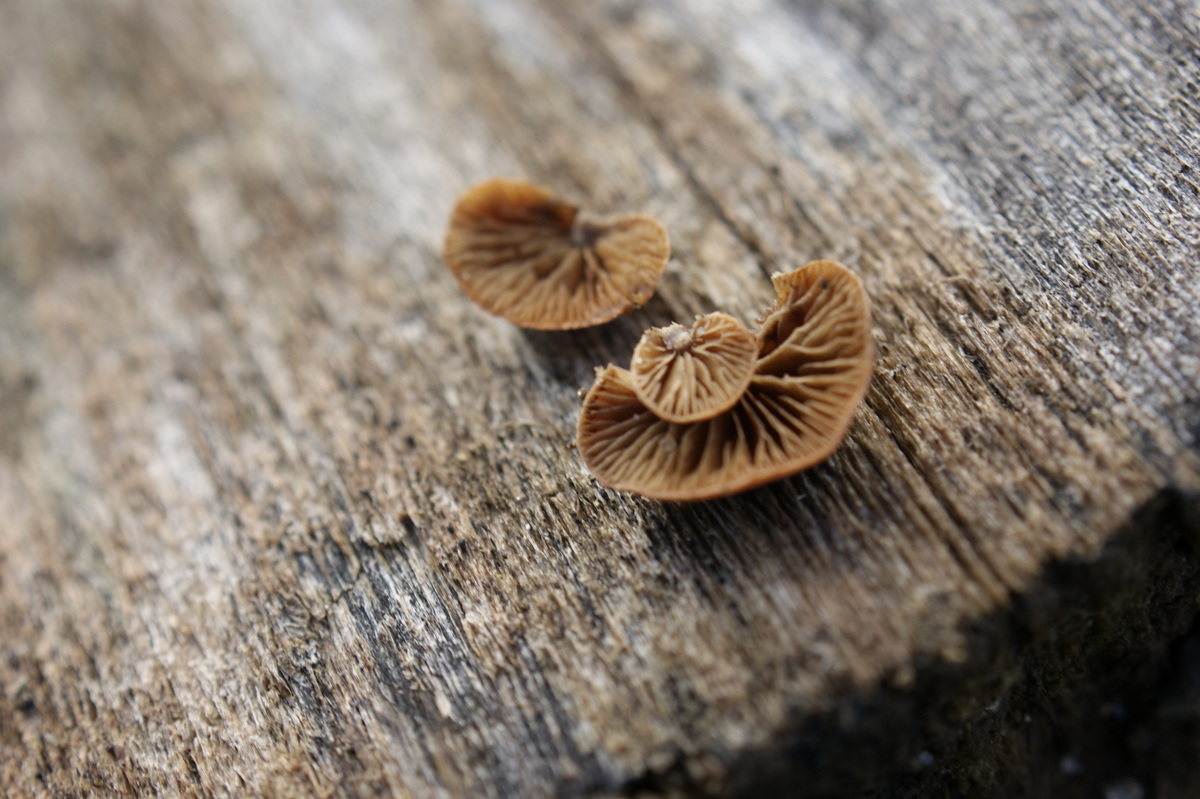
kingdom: Fungi
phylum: Basidiomycota
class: Agaricomycetes
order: Agaricales
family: Strophariaceae
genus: Deconica
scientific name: Deconica horizontalis
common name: ved-stråhat
